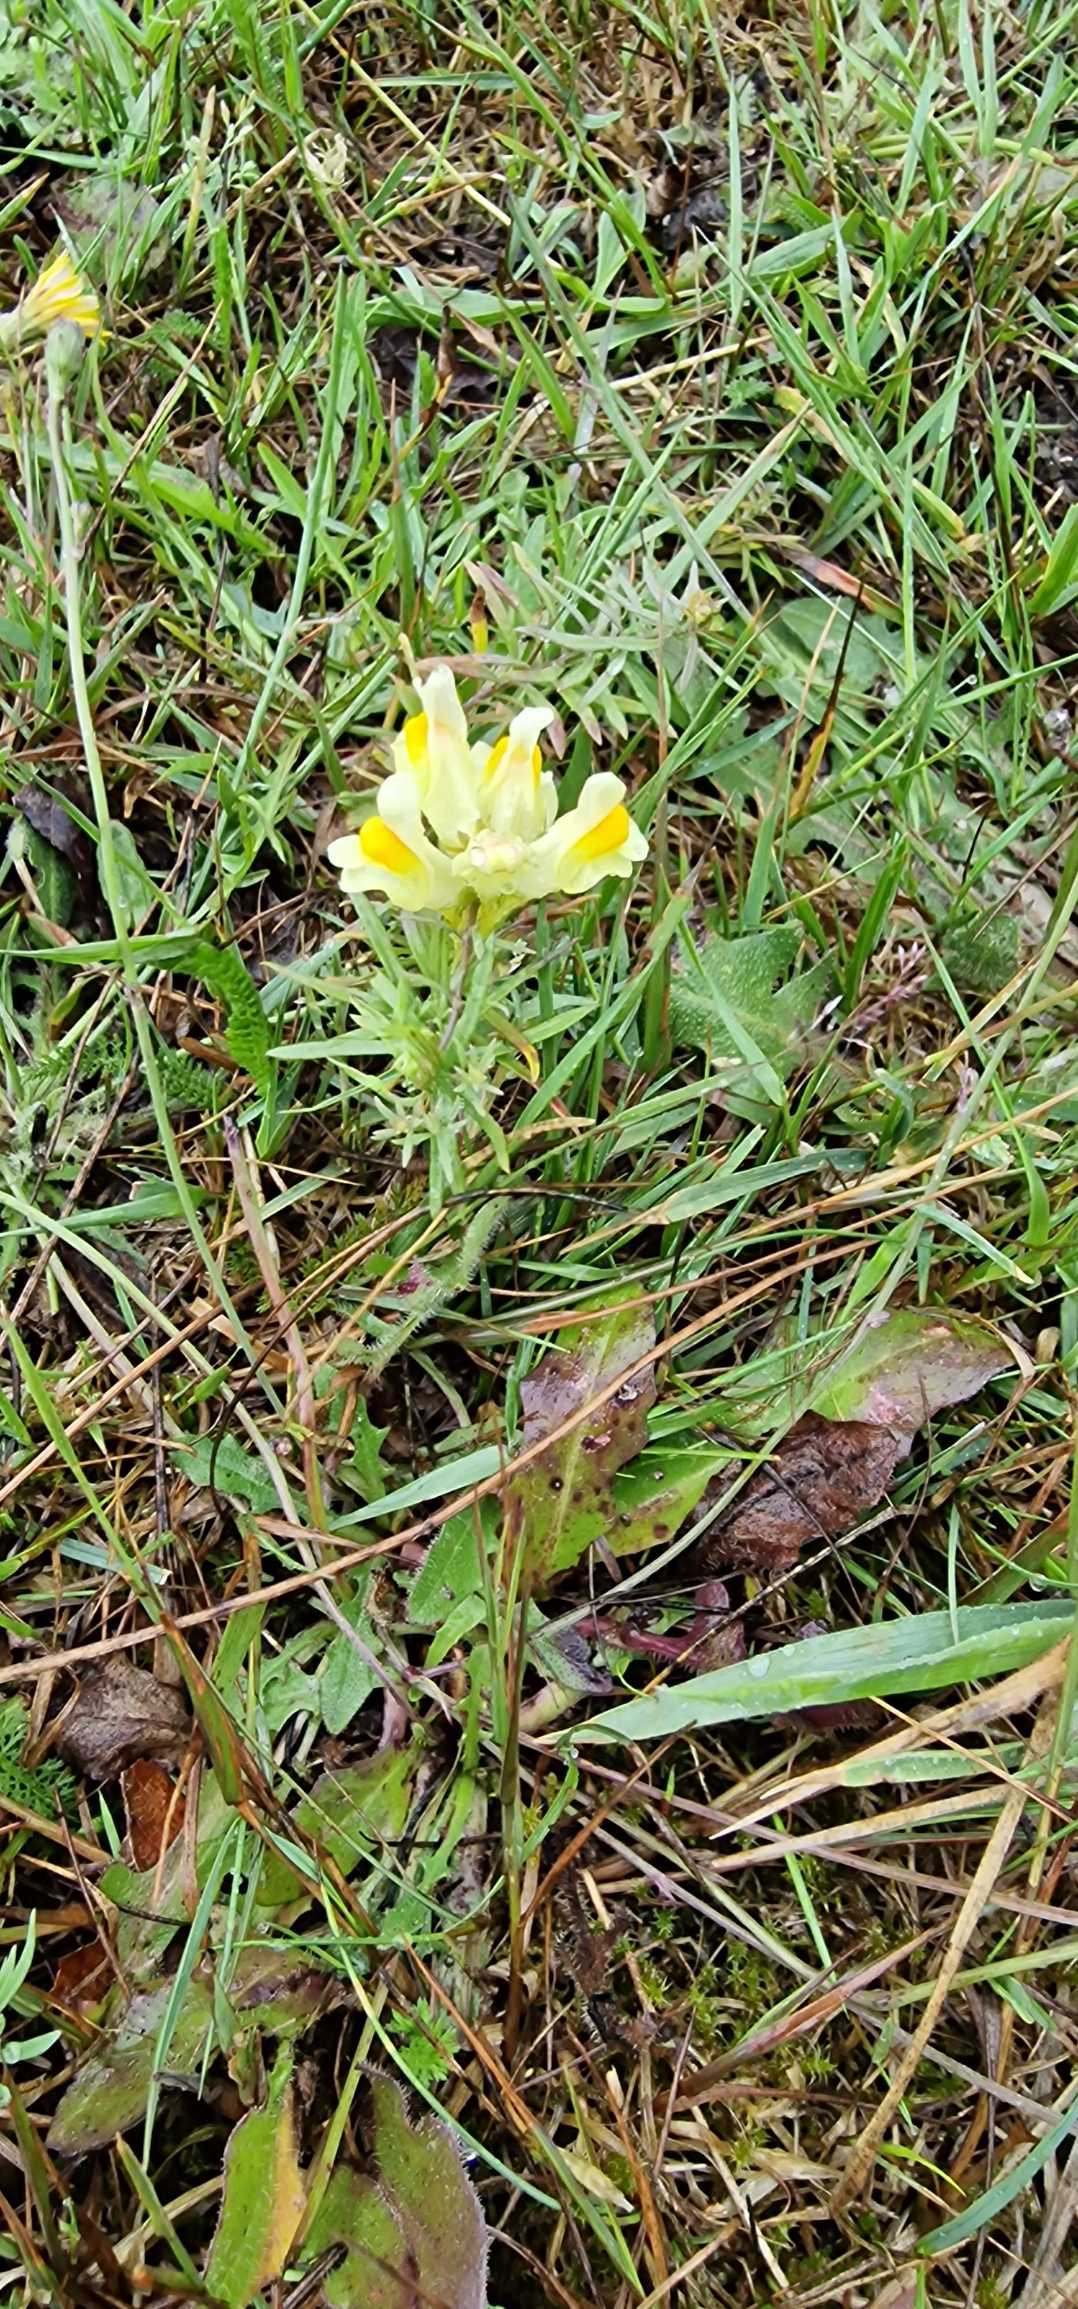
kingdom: Plantae
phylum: Tracheophyta
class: Magnoliopsida
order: Lamiales
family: Plantaginaceae
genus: Linaria
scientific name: Linaria vulgaris
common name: Almindelig torskemund
